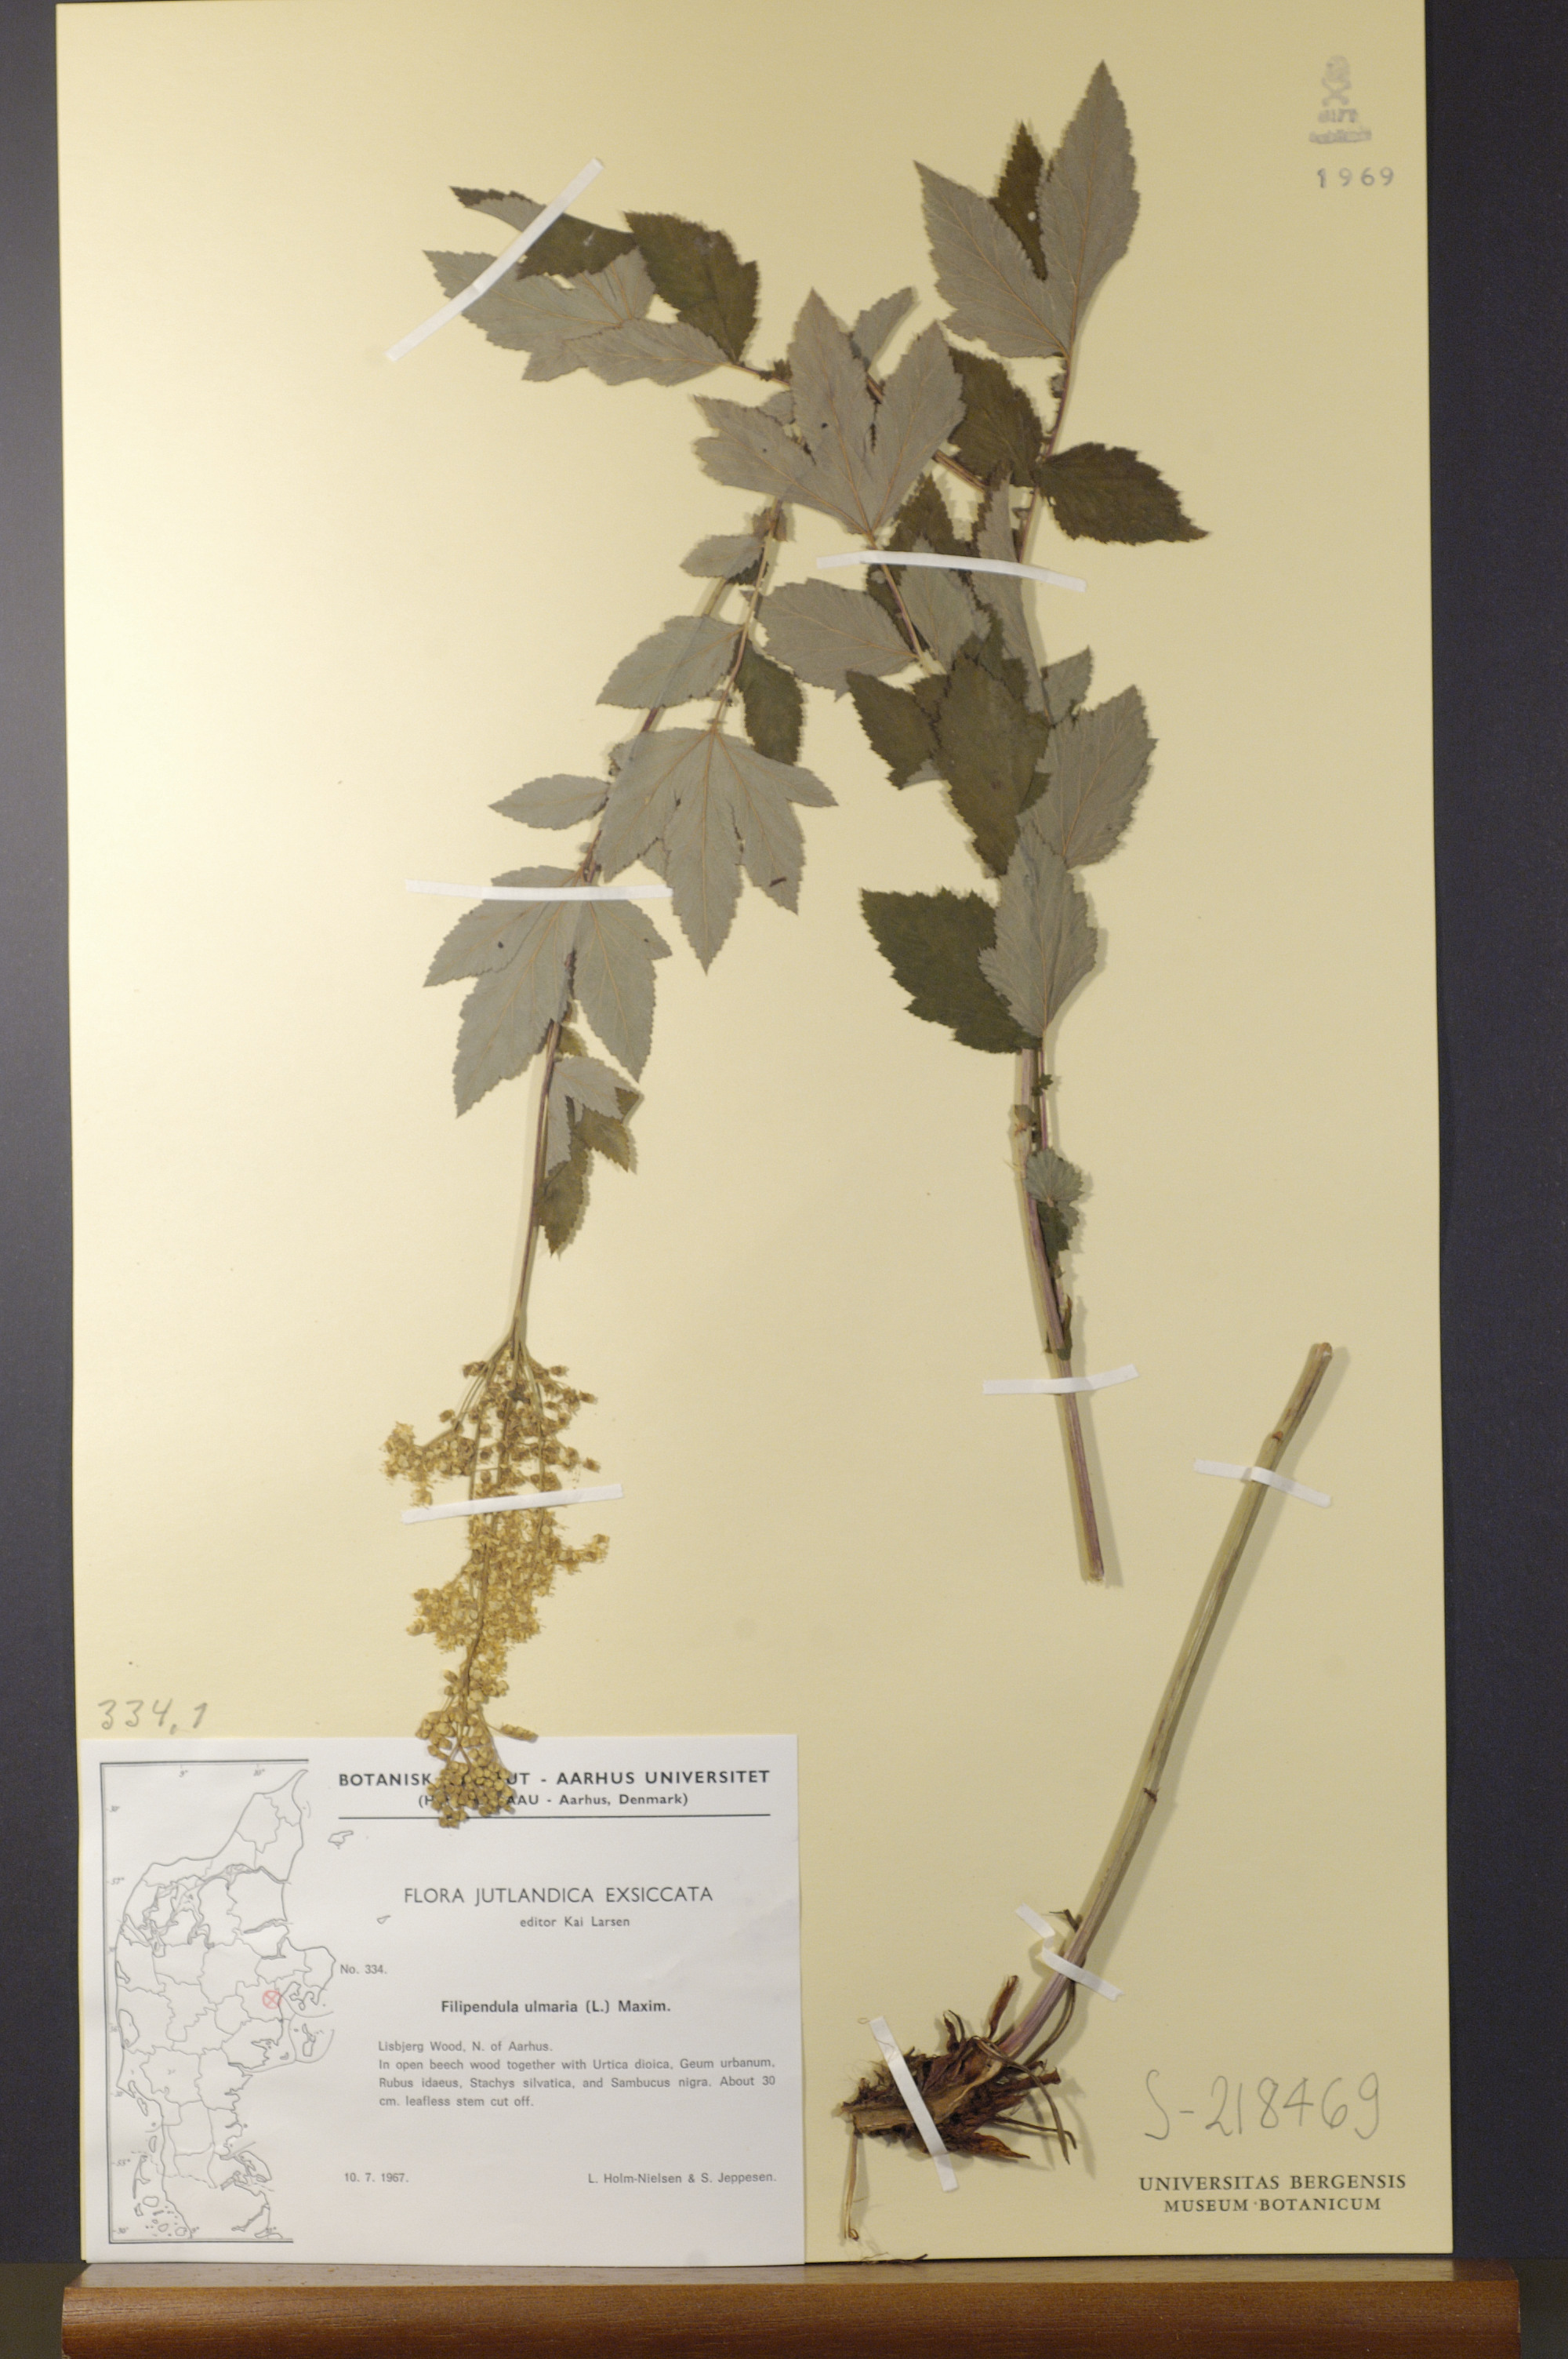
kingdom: Plantae
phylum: Tracheophyta
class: Magnoliopsida
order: Rosales
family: Rosaceae
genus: Filipendula
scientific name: Filipendula ulmaria
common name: Meadowsweet
